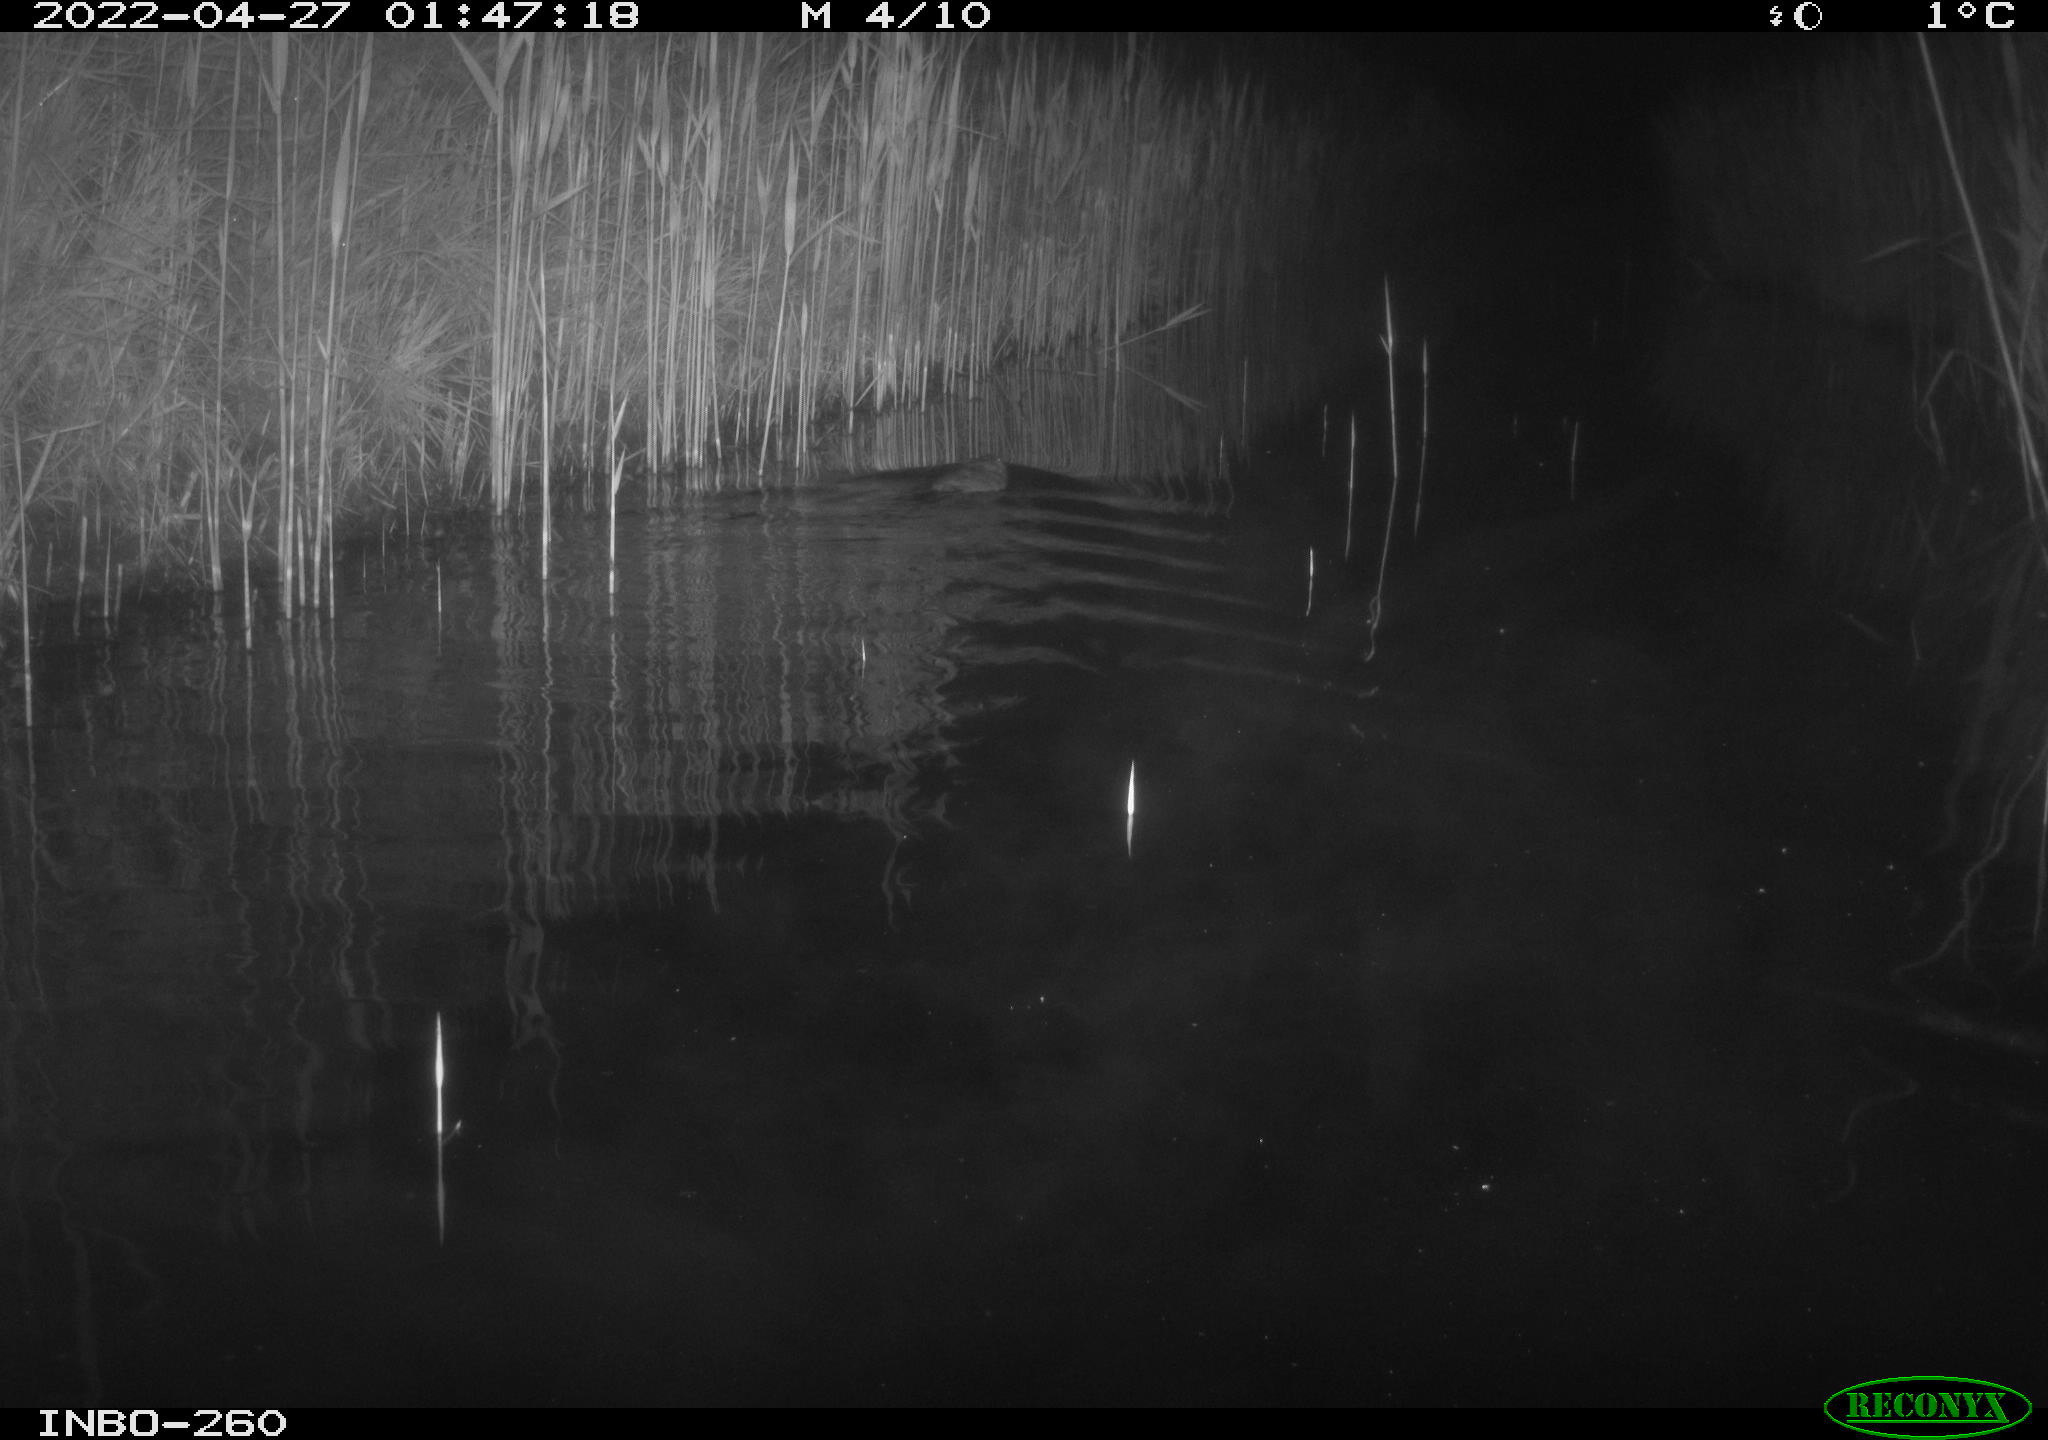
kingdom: Animalia
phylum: Chordata
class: Mammalia
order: Rodentia
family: Cricetidae
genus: Ondatra
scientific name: Ondatra zibethicus
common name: Muskrat
